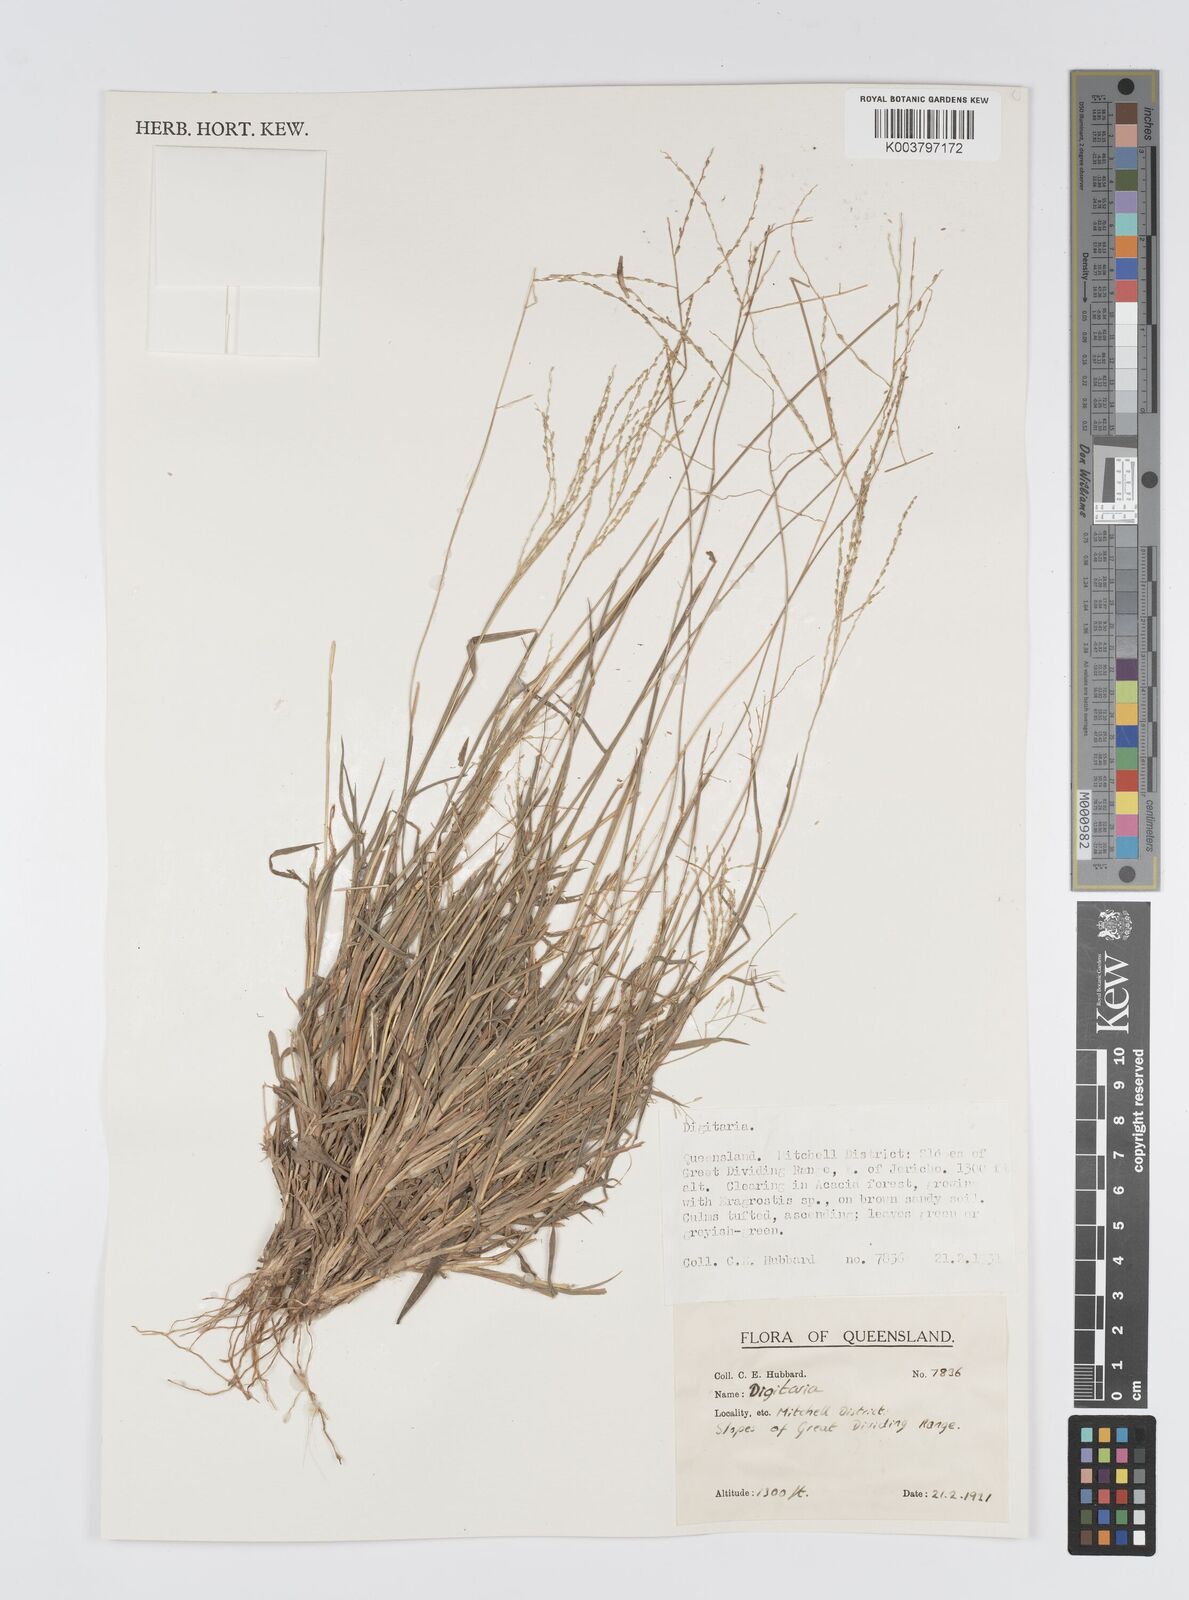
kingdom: Plantae
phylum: Tracheophyta
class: Liliopsida
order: Poales
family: Poaceae
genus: Digitaria
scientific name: Digitaria spec
